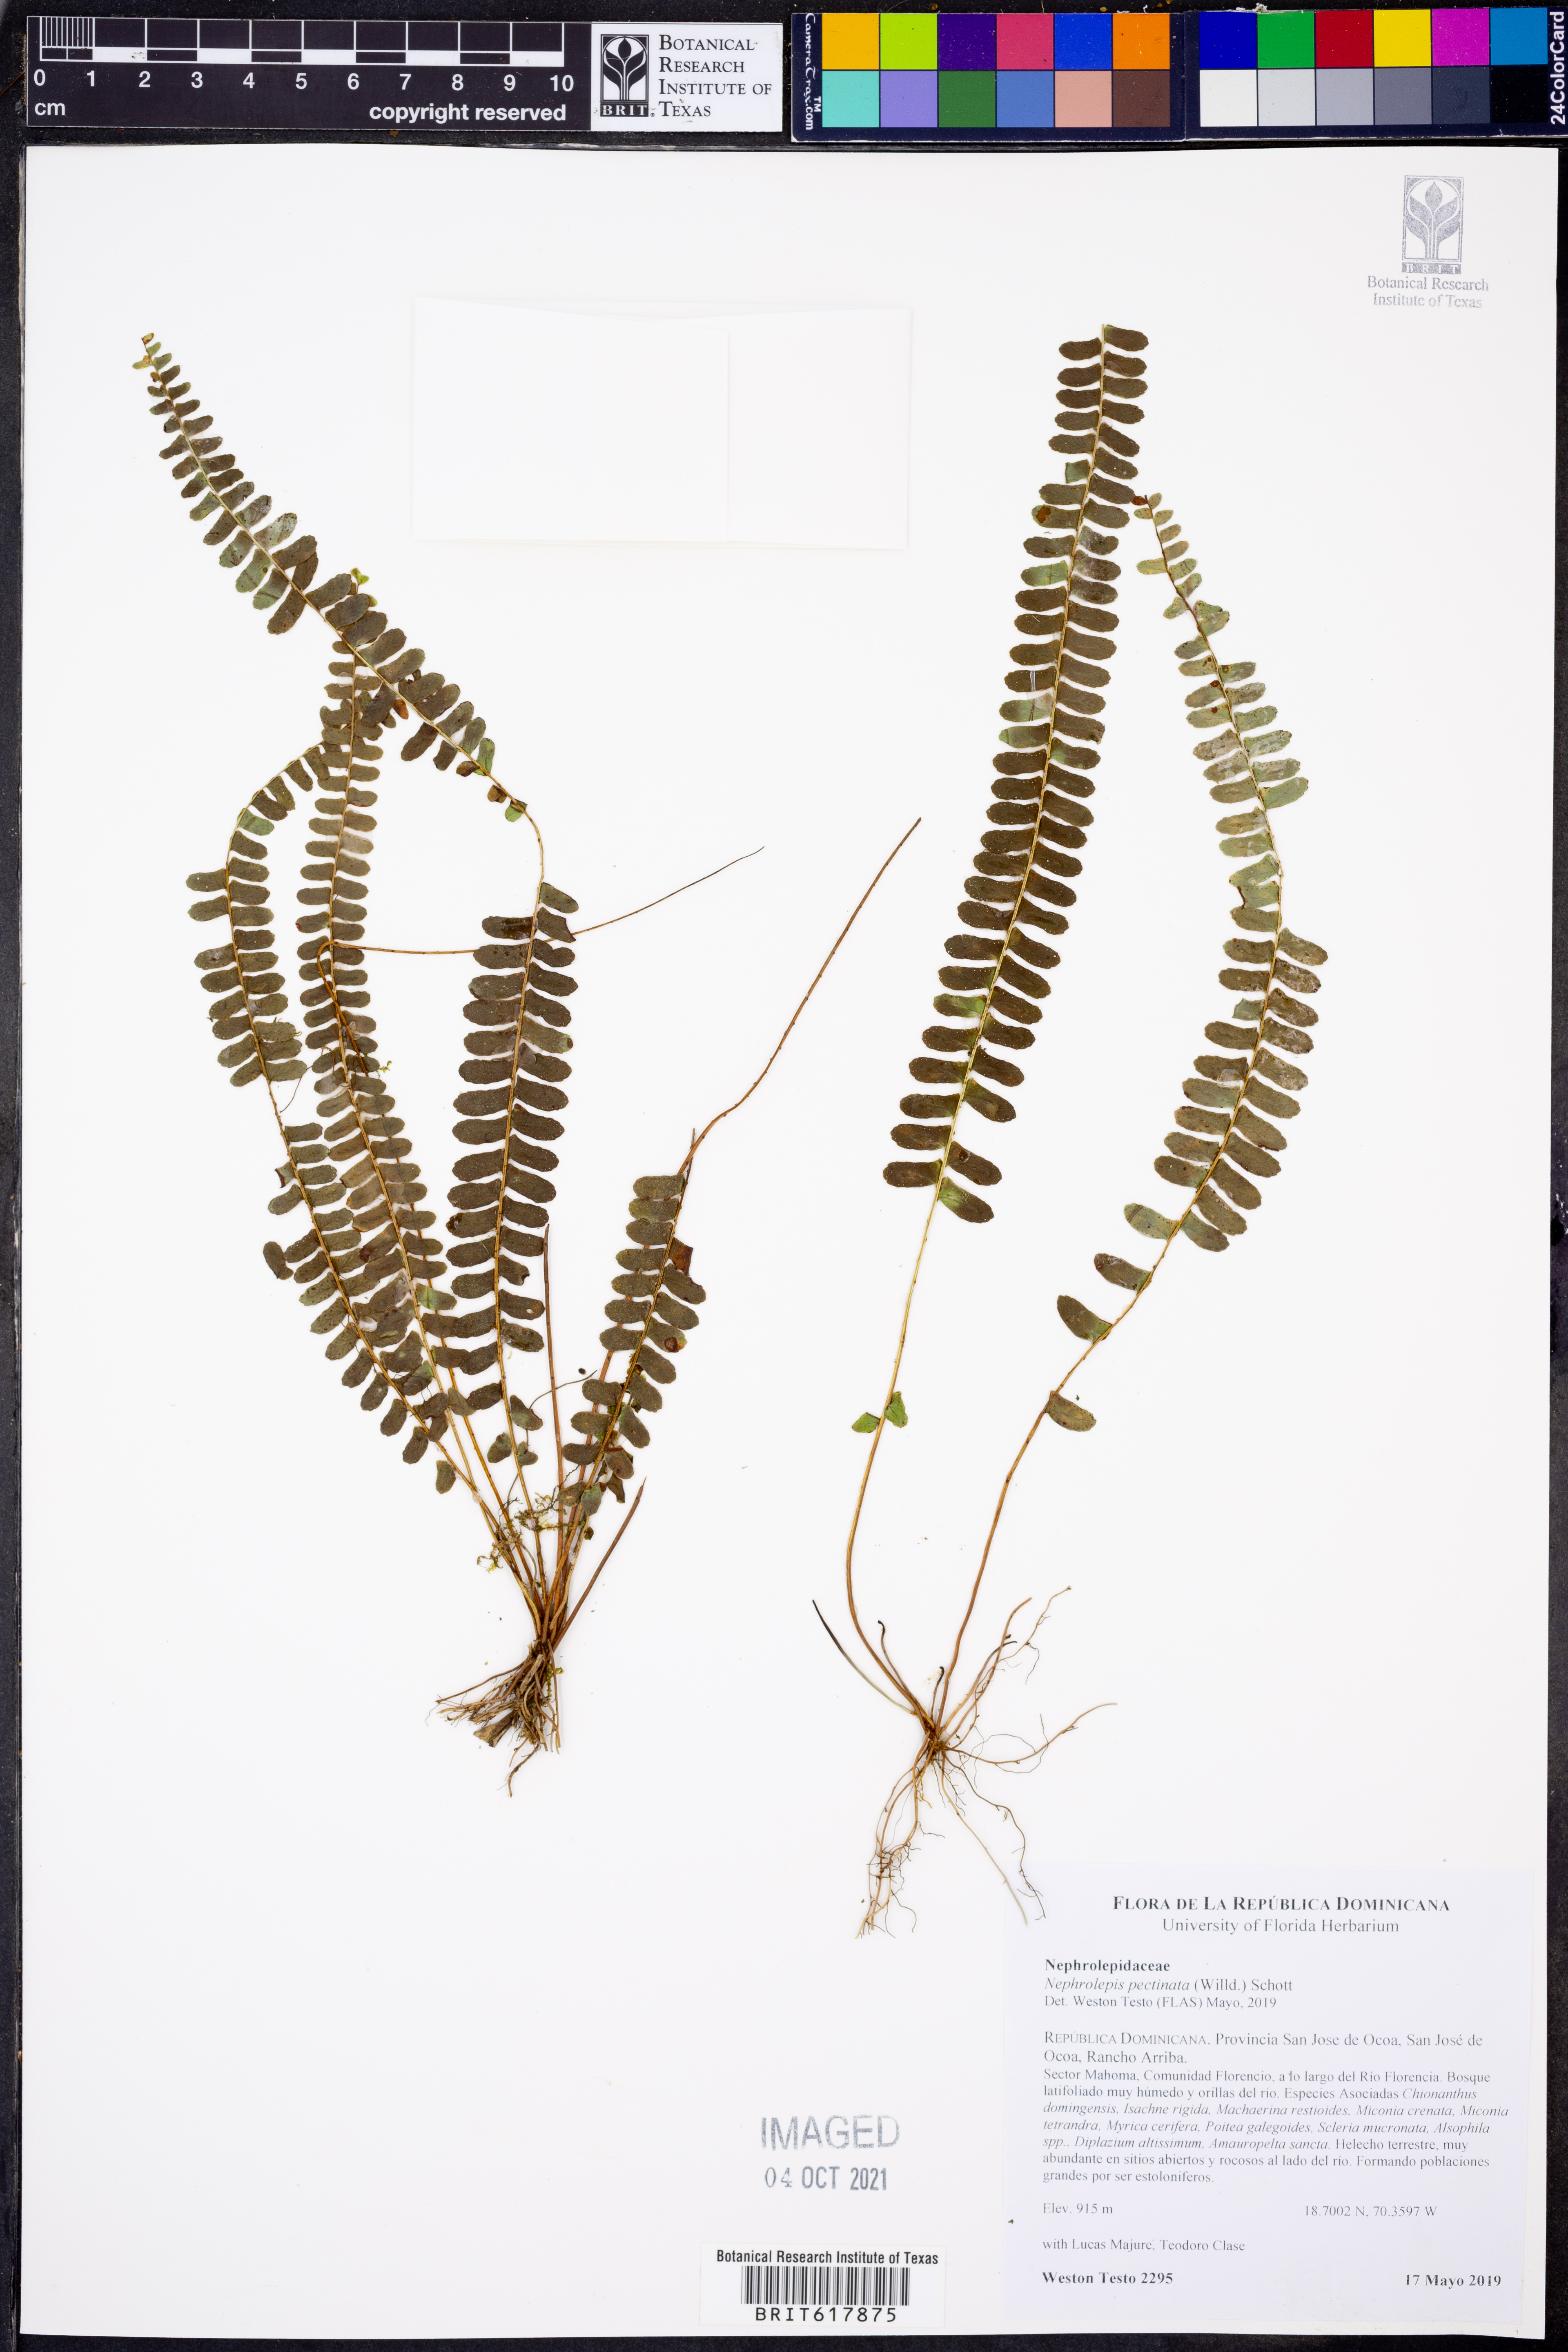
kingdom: Plantae
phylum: Tracheophyta
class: Polypodiopsida
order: Polypodiales
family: Nephrolepidaceae
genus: Nephrolepis
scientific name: Nephrolepis pectinata
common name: Basket fern
